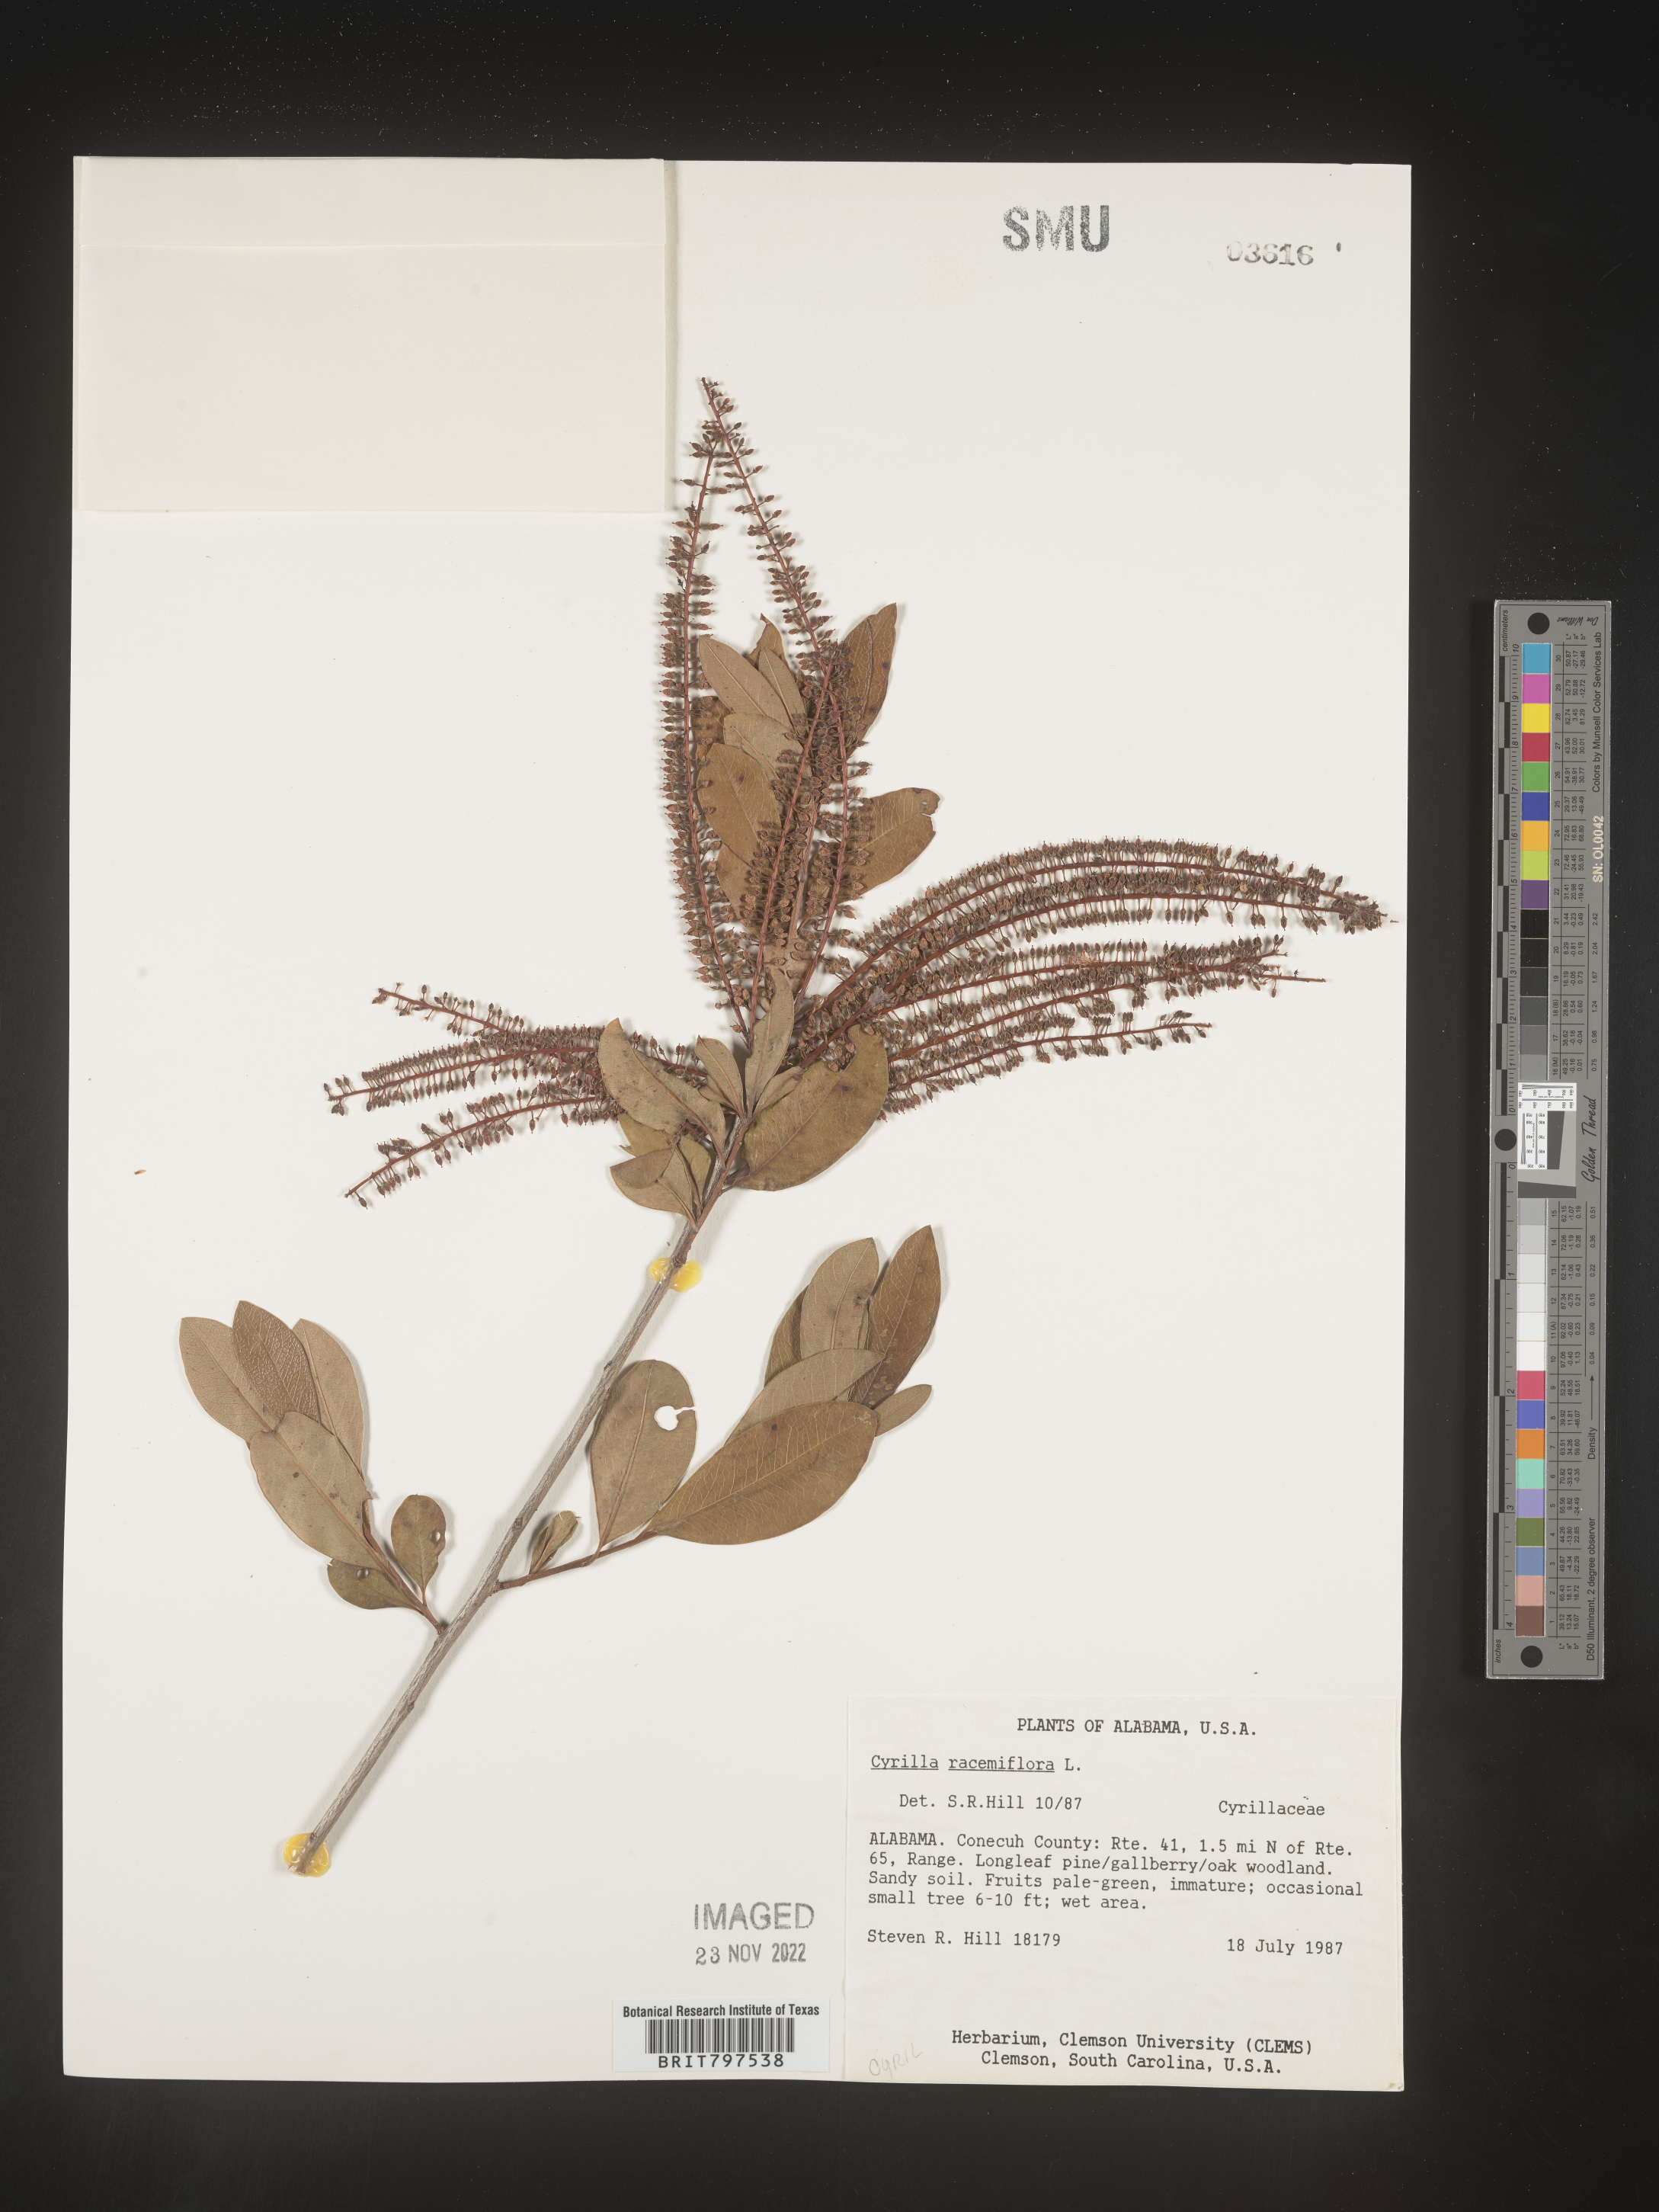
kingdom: Plantae
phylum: Tracheophyta
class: Magnoliopsida
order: Ericales
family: Cyrillaceae
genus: Cyrilla
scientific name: Cyrilla racemiflora
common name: Black titi
